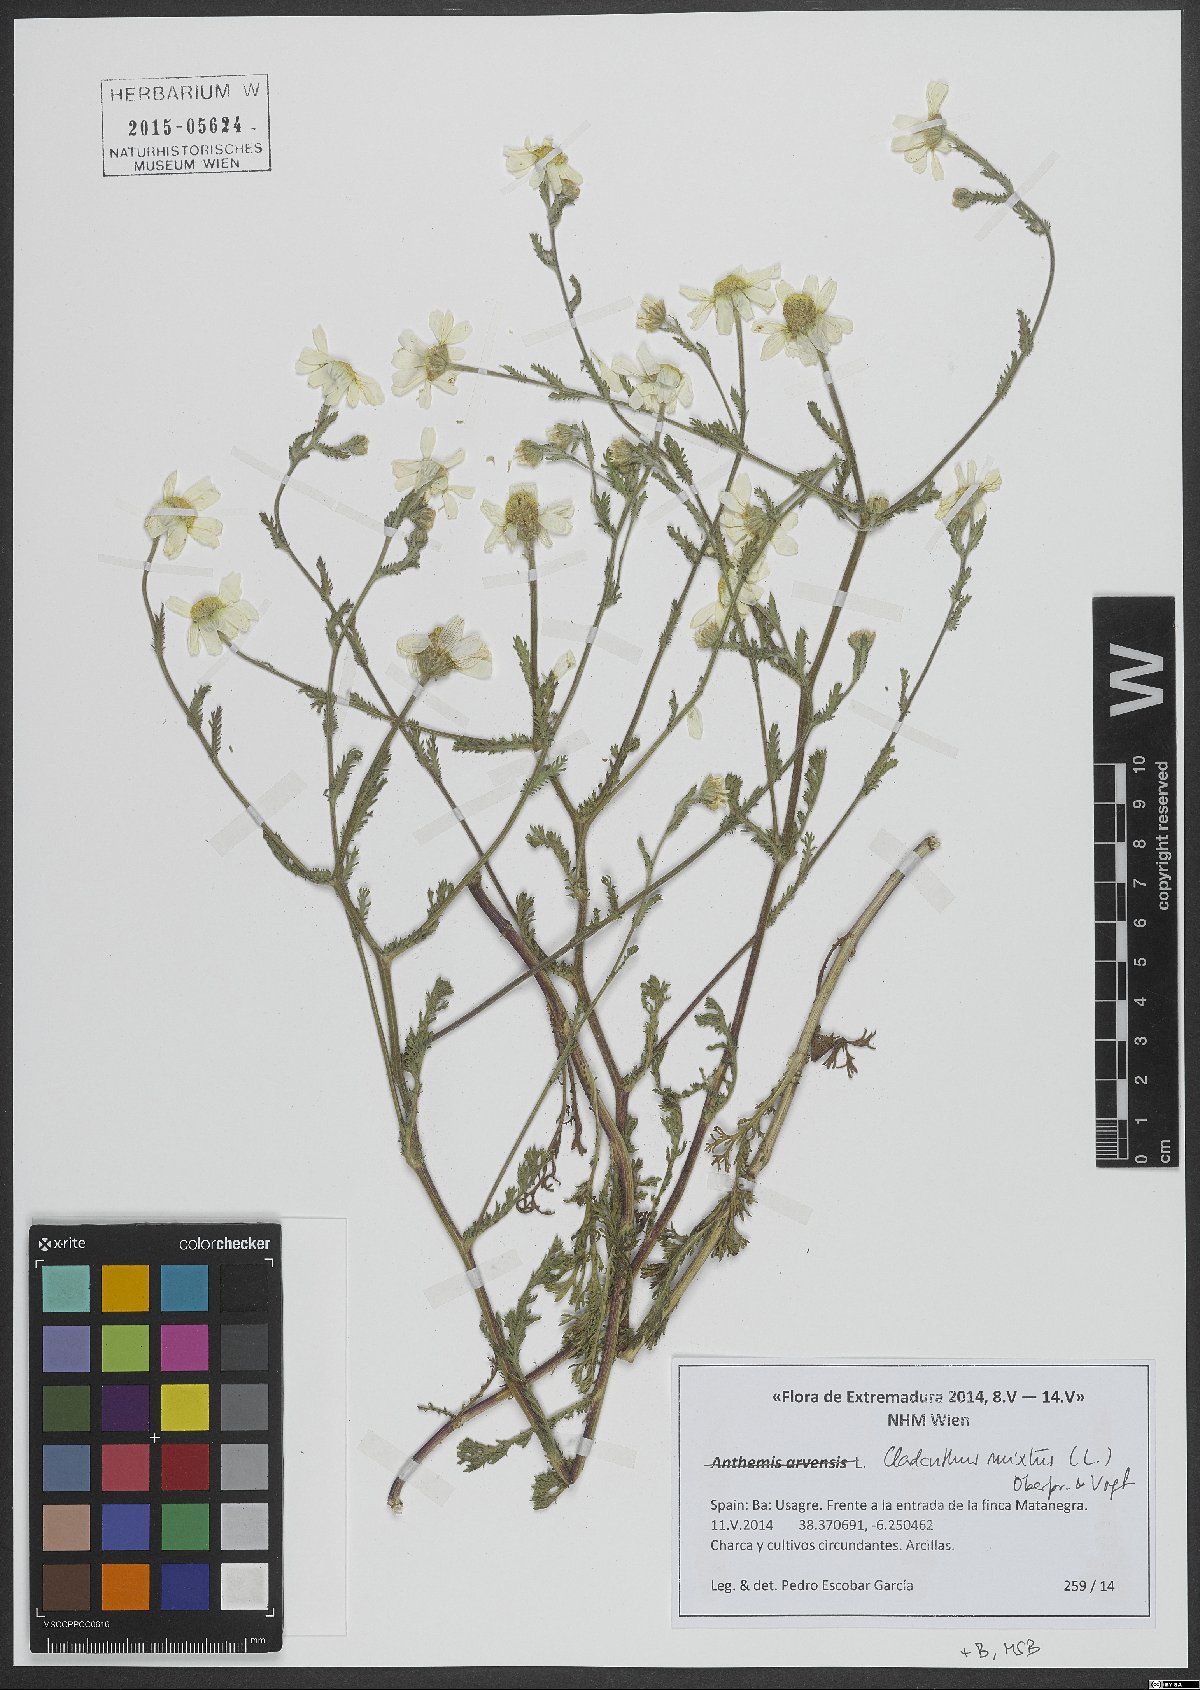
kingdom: Plantae
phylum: Tracheophyta
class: Magnoliopsida
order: Asterales
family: Asteraceae
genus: Cladanthus
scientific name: Cladanthus mixtus
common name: Weedy dogfennel
